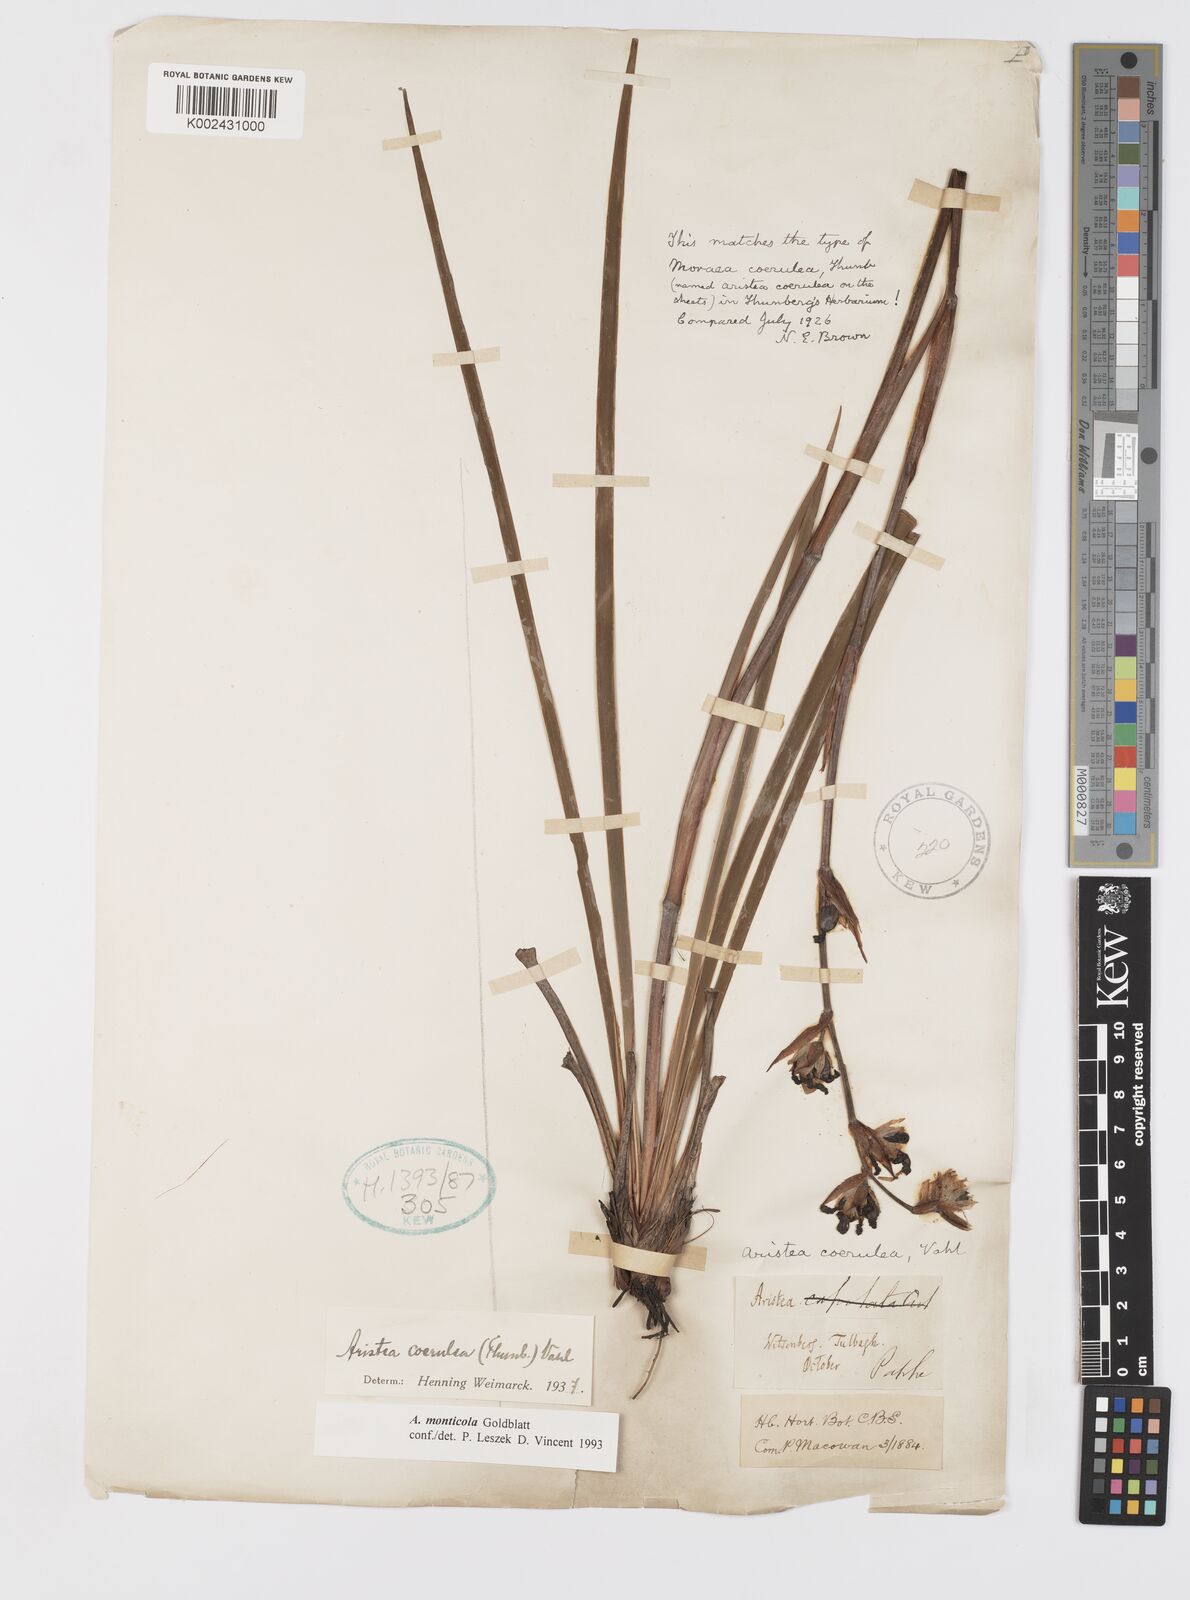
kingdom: Plantae
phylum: Tracheophyta
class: Liliopsida
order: Asparagales
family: Iridaceae
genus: Aristea
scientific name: Aristea monticola
